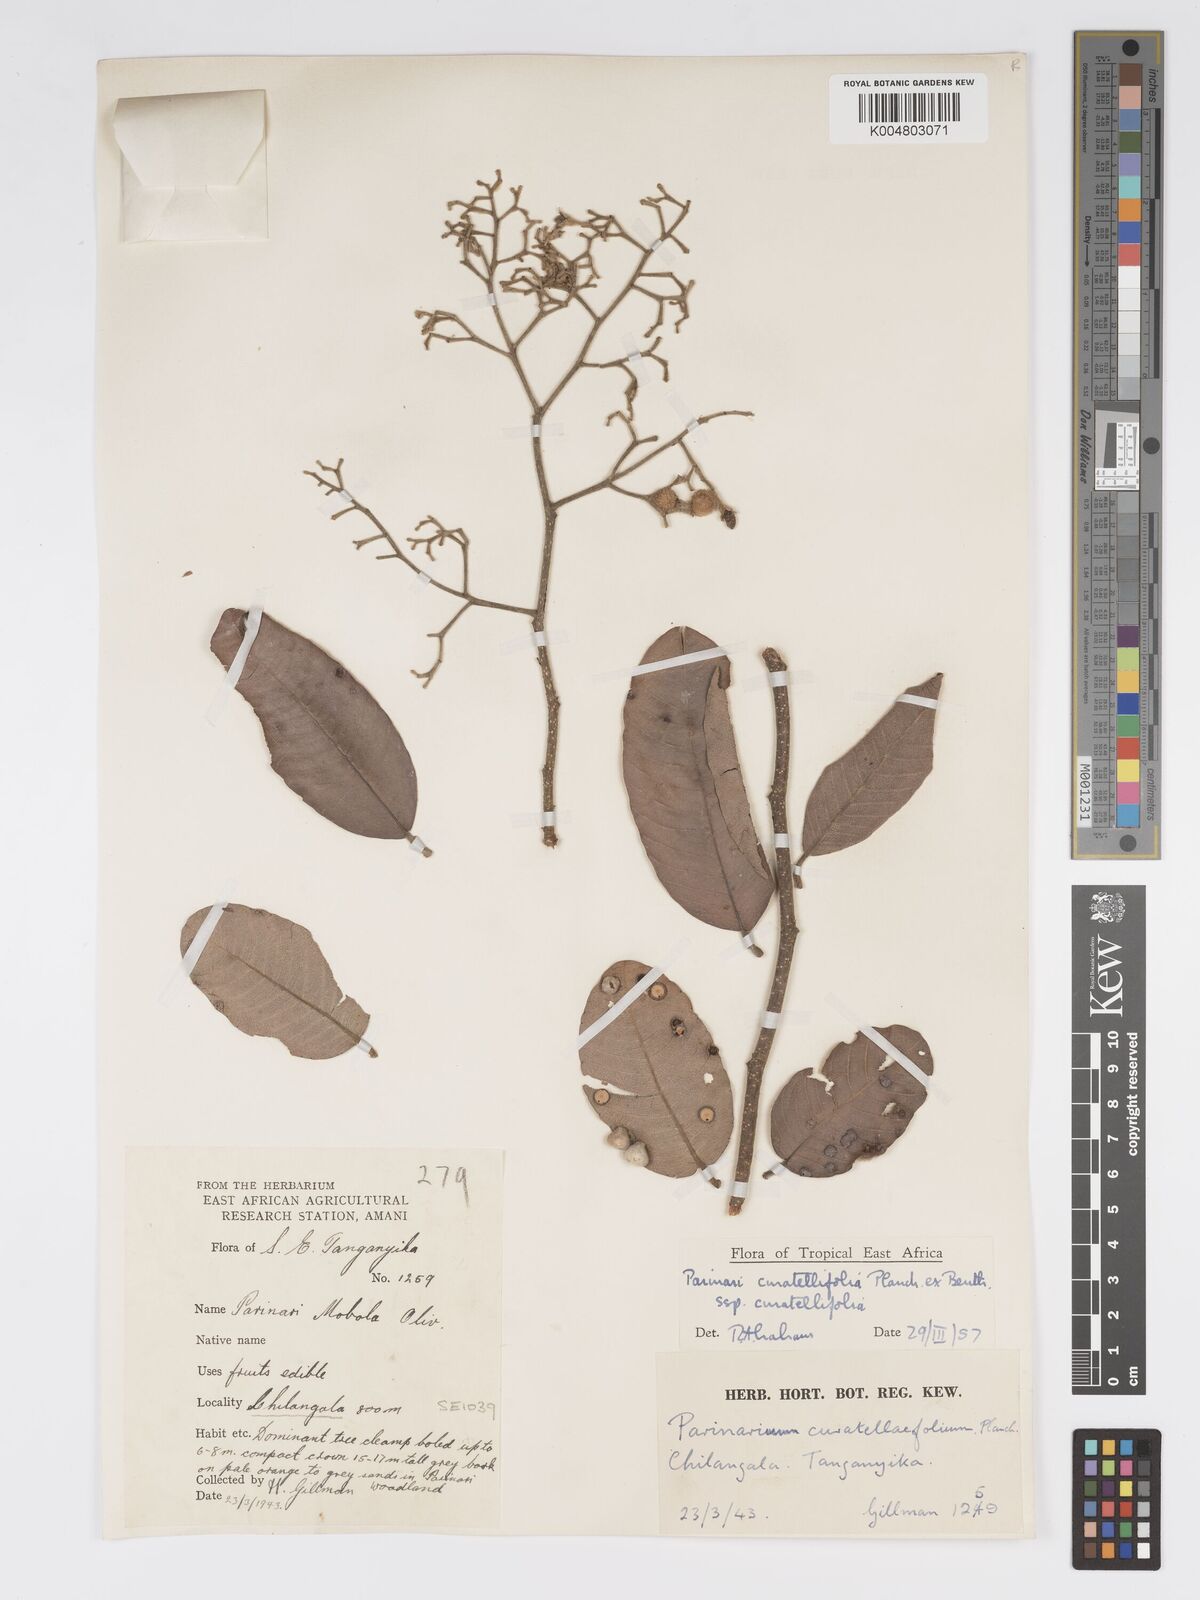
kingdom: Plantae
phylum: Tracheophyta
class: Magnoliopsida
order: Malpighiales
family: Chrysobalanaceae
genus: Parinari
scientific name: Parinari curatellifolia
